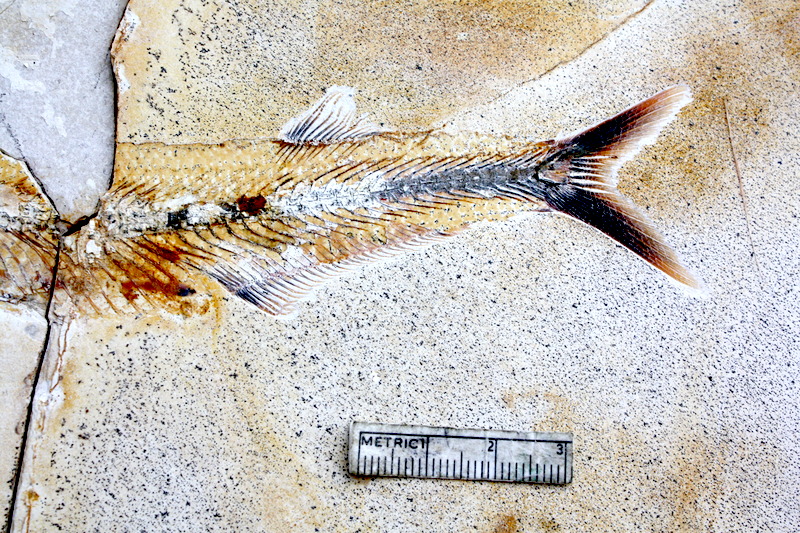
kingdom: Animalia
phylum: Chordata
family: Allothrissopidae
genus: Allothrissops
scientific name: Allothrissops mesogaster
